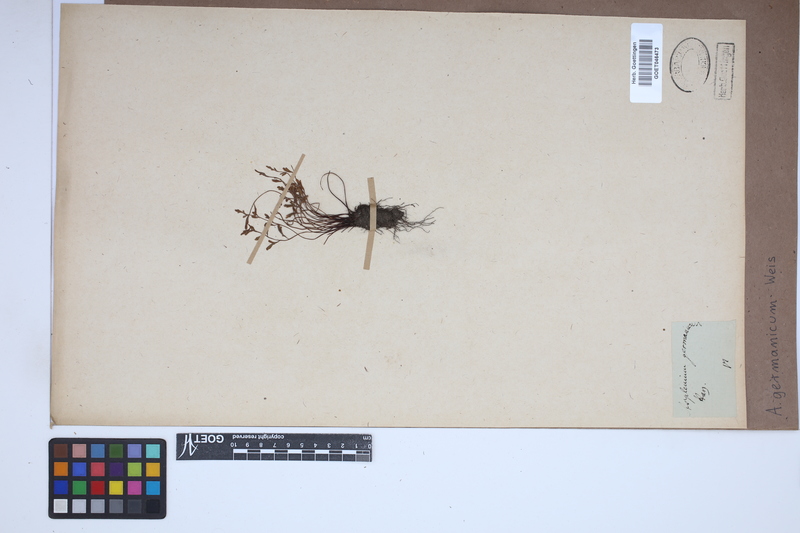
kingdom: Plantae
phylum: Tracheophyta
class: Polypodiopsida
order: Polypodiales
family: Aspleniaceae
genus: Asplenium
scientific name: Asplenium
